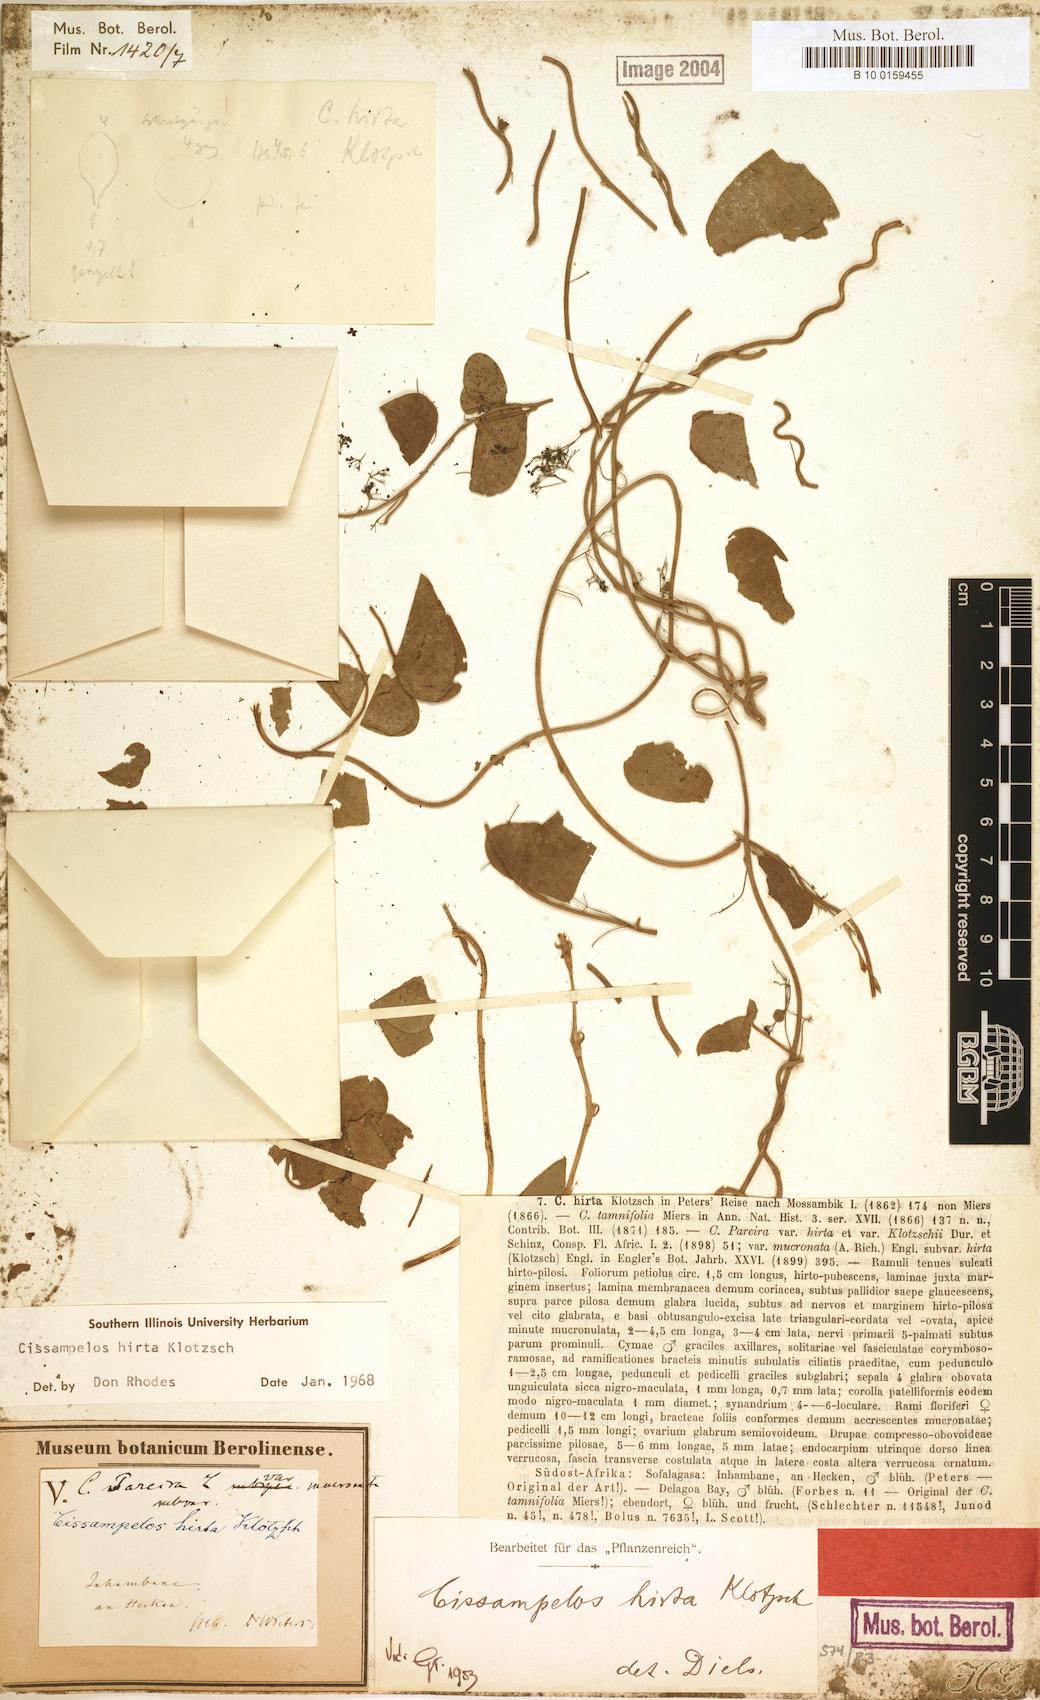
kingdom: Plantae
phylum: Tracheophyta
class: Magnoliopsida
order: Ranunculales
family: Menispermaceae
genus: Cissampelos
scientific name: Cissampelos hirta
